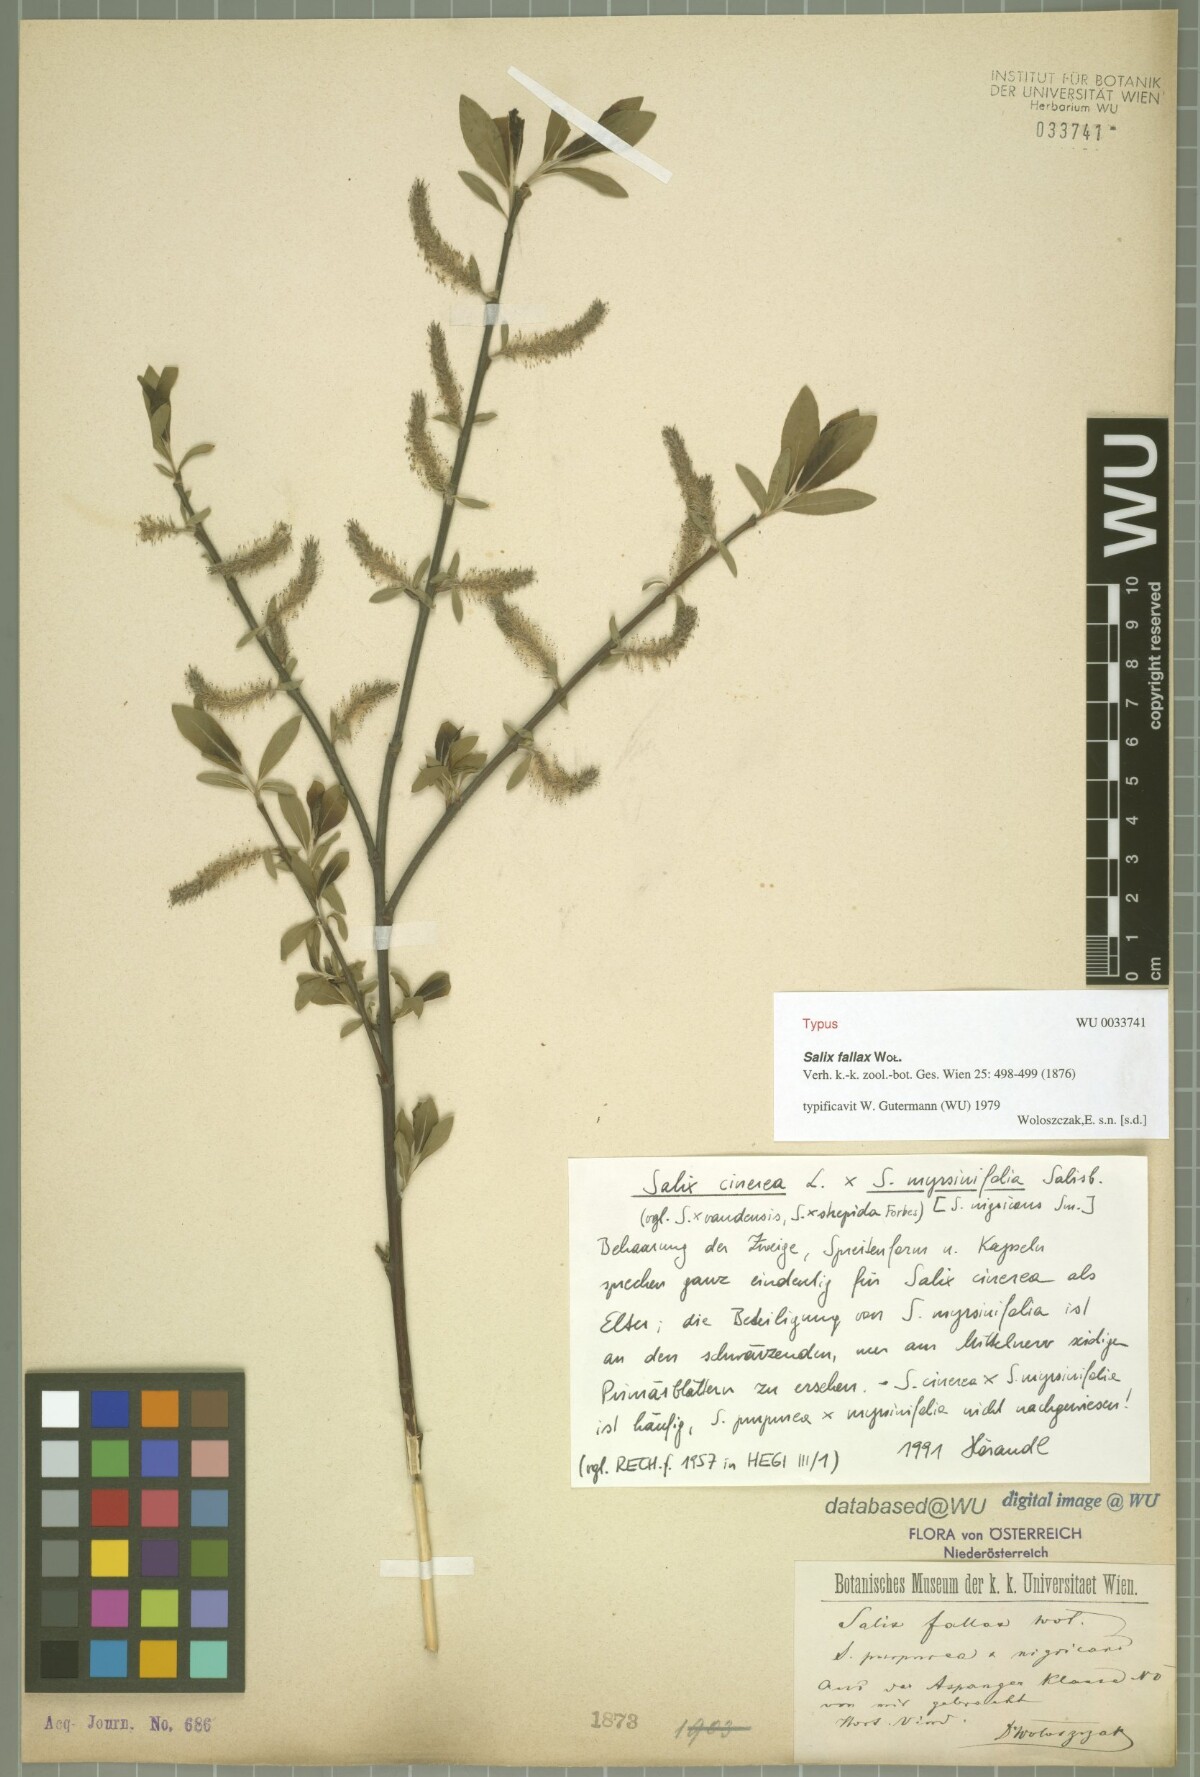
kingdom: Plantae
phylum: Tracheophyta
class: Magnoliopsida
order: Malpighiales
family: Salicaceae
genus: Salix
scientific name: Salix fallax
